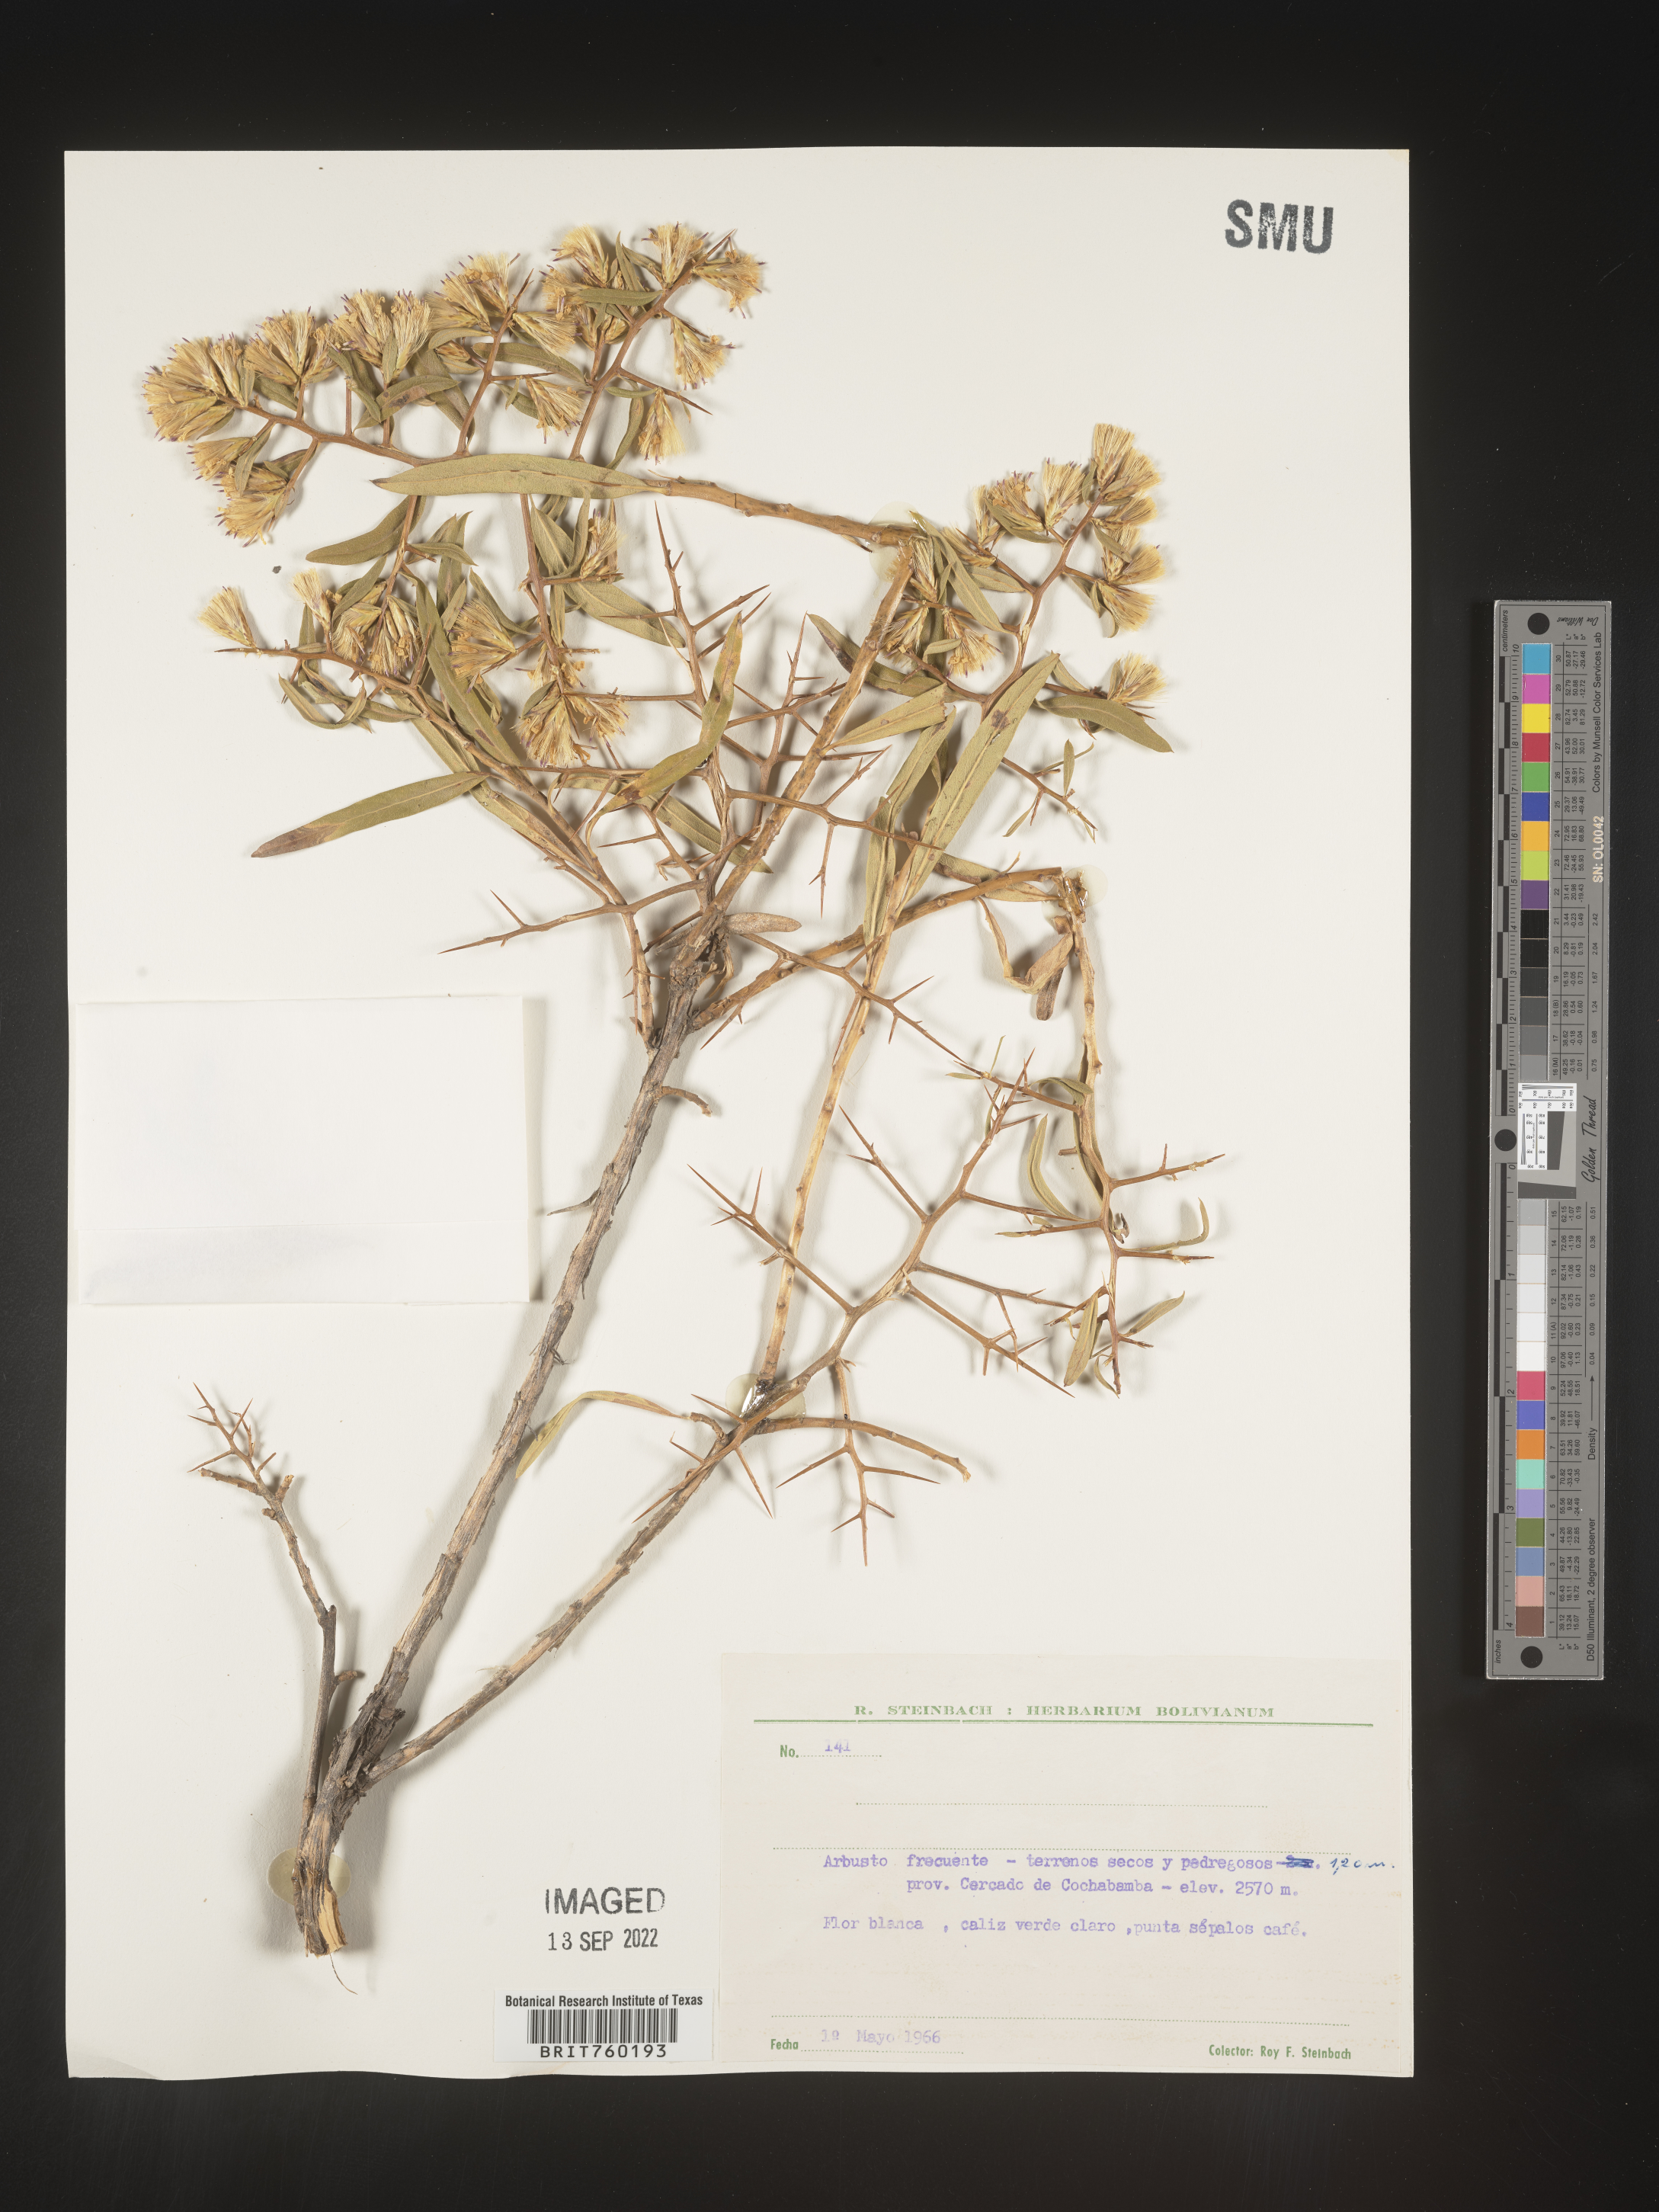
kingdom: Plantae
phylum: Tracheophyta
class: Magnoliopsida
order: Asterales
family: Asteraceae
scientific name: Asteraceae
